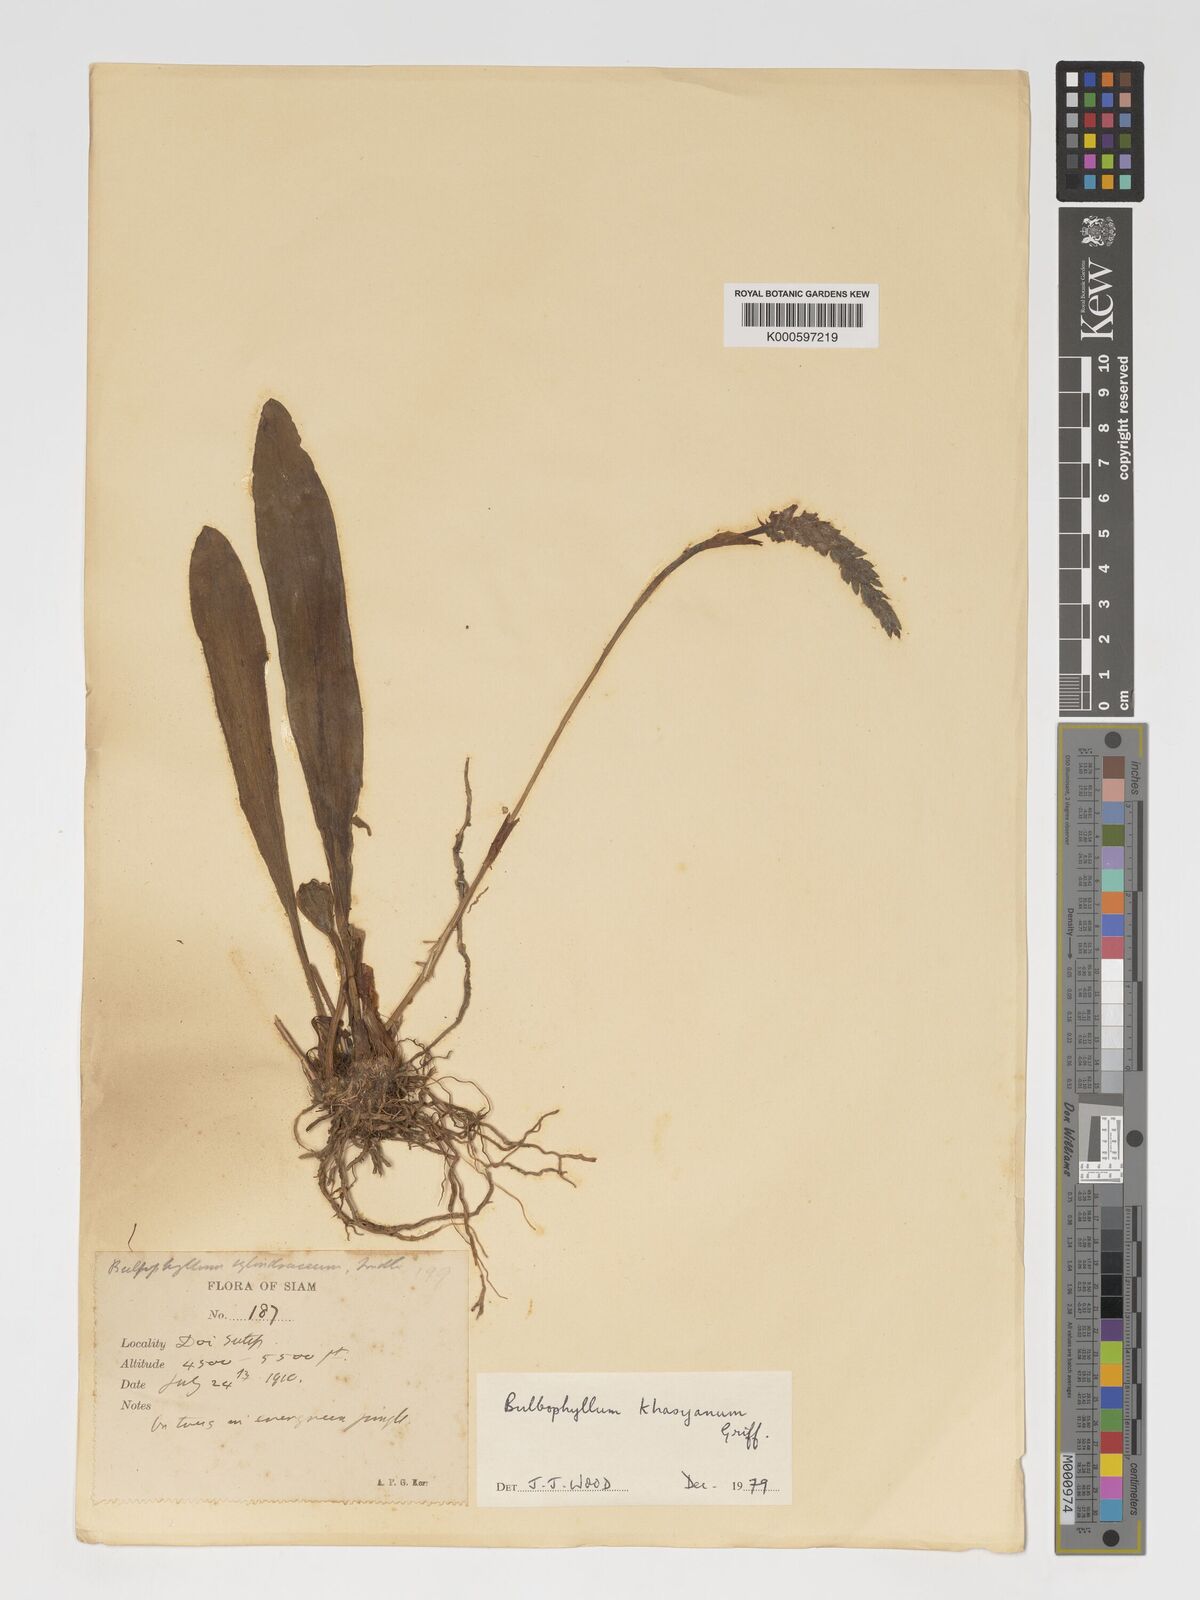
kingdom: Plantae
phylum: Tracheophyta
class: Liliopsida
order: Asparagales
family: Orchidaceae
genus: Bulbophyllum
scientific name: Bulbophyllum khasyanum
